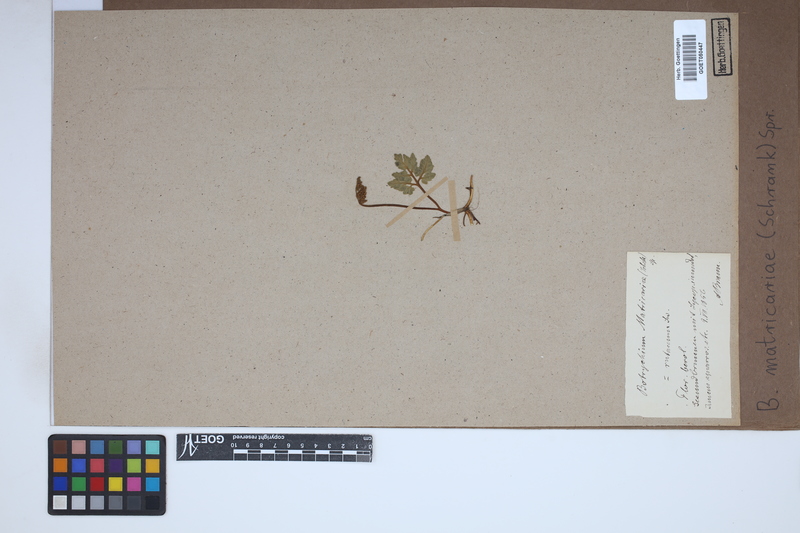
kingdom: Plantae
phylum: Tracheophyta
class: Polypodiopsida
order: Ophioglossales
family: Ophioglossaceae
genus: Sceptridium
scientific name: Sceptridium multifidum
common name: Leathery grape fern
